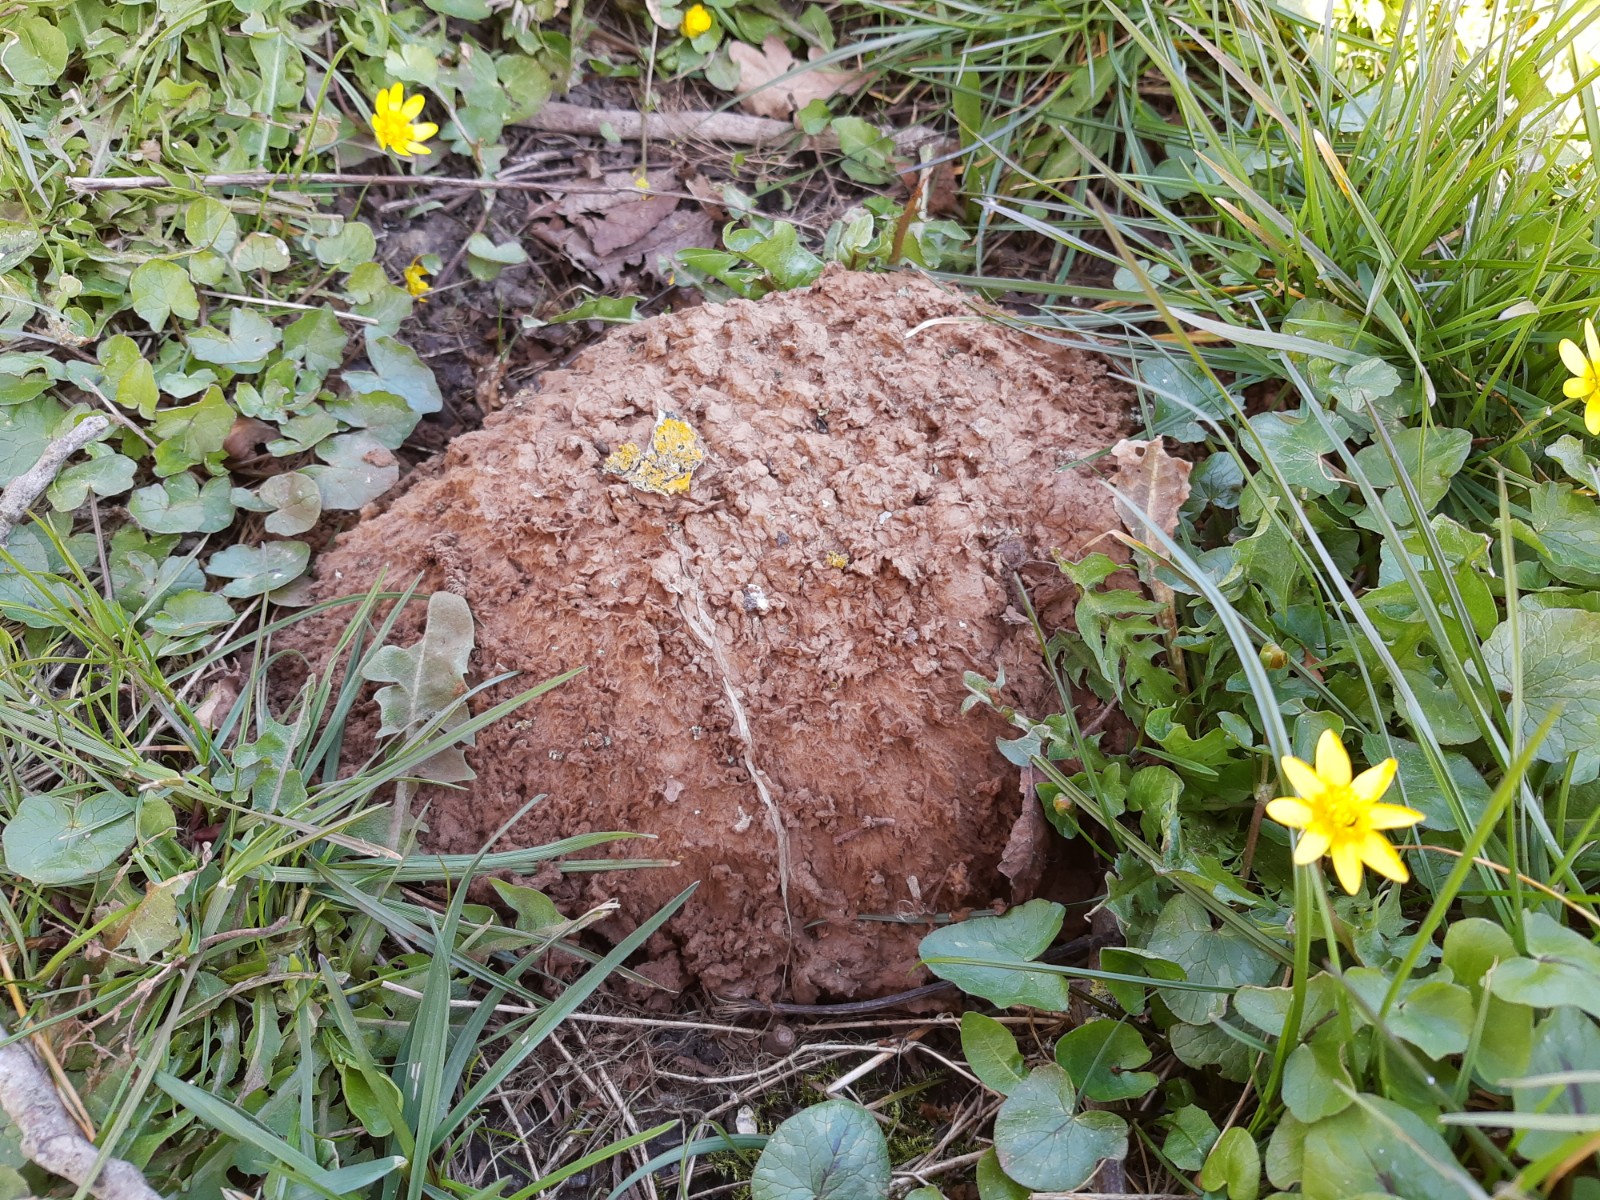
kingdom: Fungi
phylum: Basidiomycota
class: Agaricomycetes
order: Agaricales
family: Lycoperdaceae
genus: Calvatia
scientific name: Calvatia gigantea
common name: kæmpestøvbold
